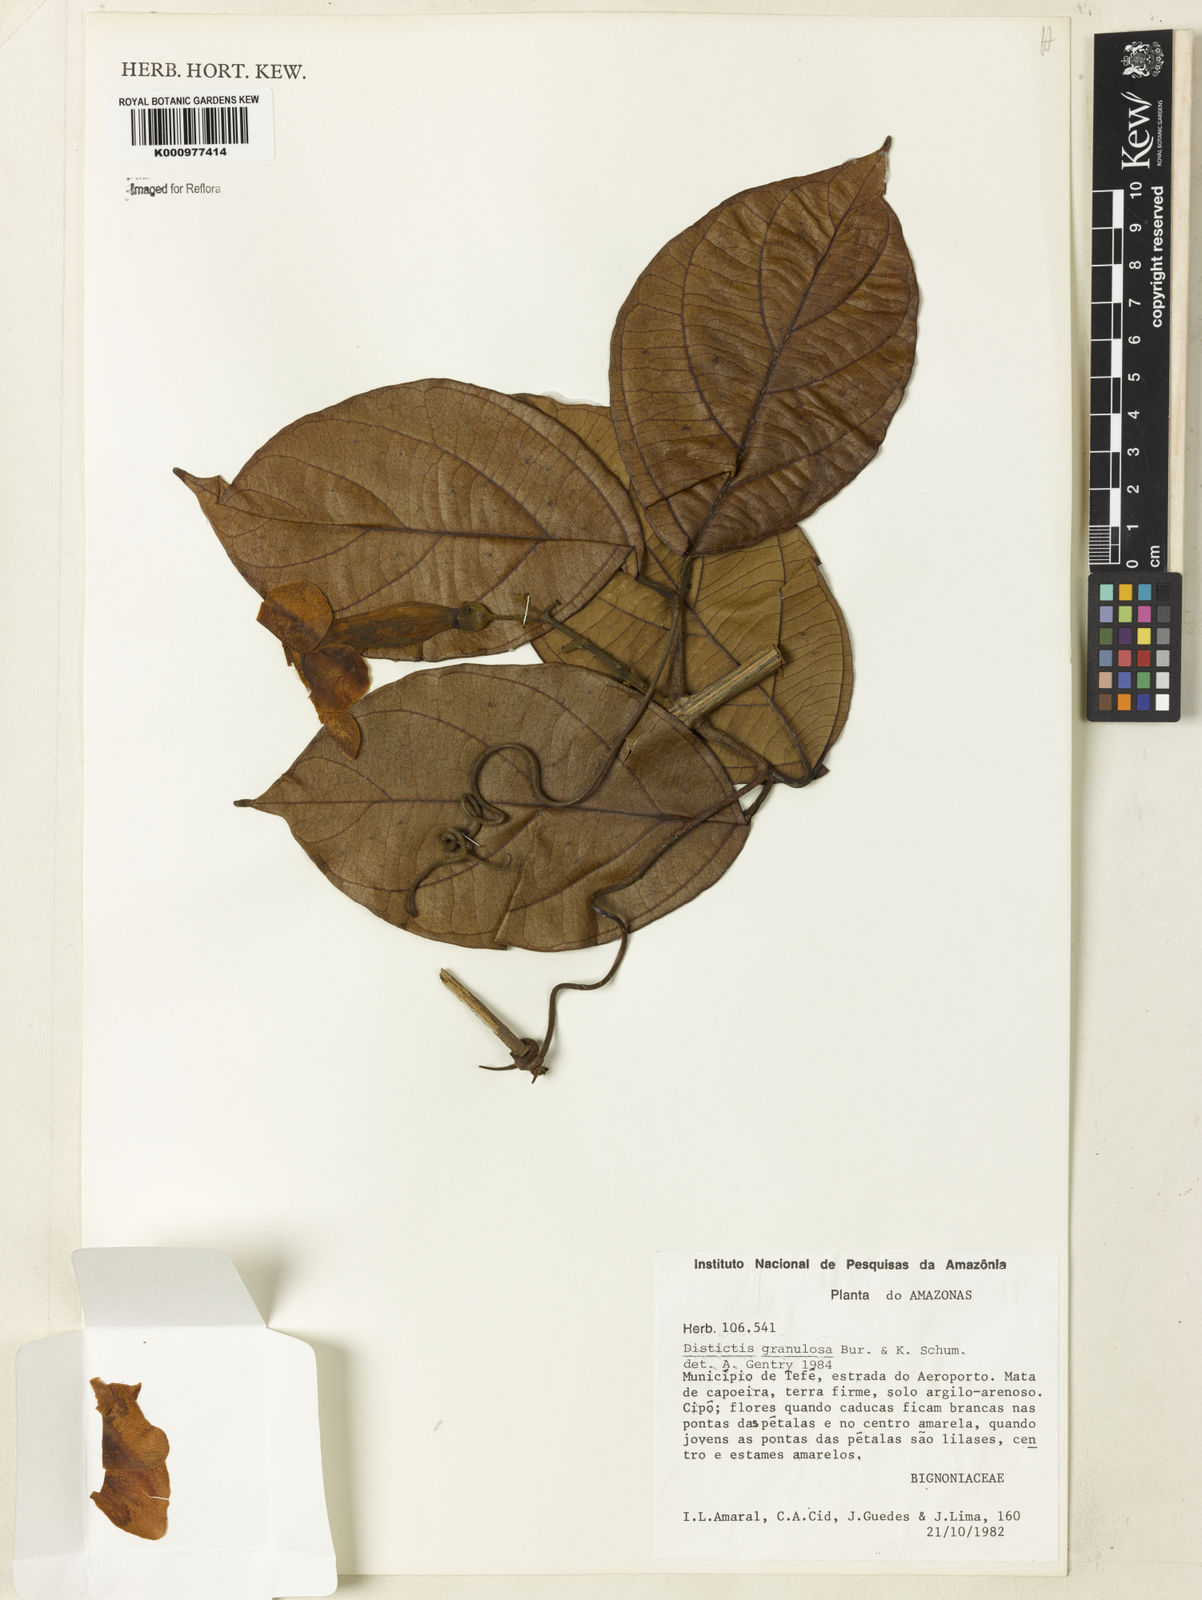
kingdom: Plantae
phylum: Tracheophyta
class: Magnoliopsida
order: Lamiales
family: Bignoniaceae
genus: Amphilophium
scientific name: Amphilophium granulosum
